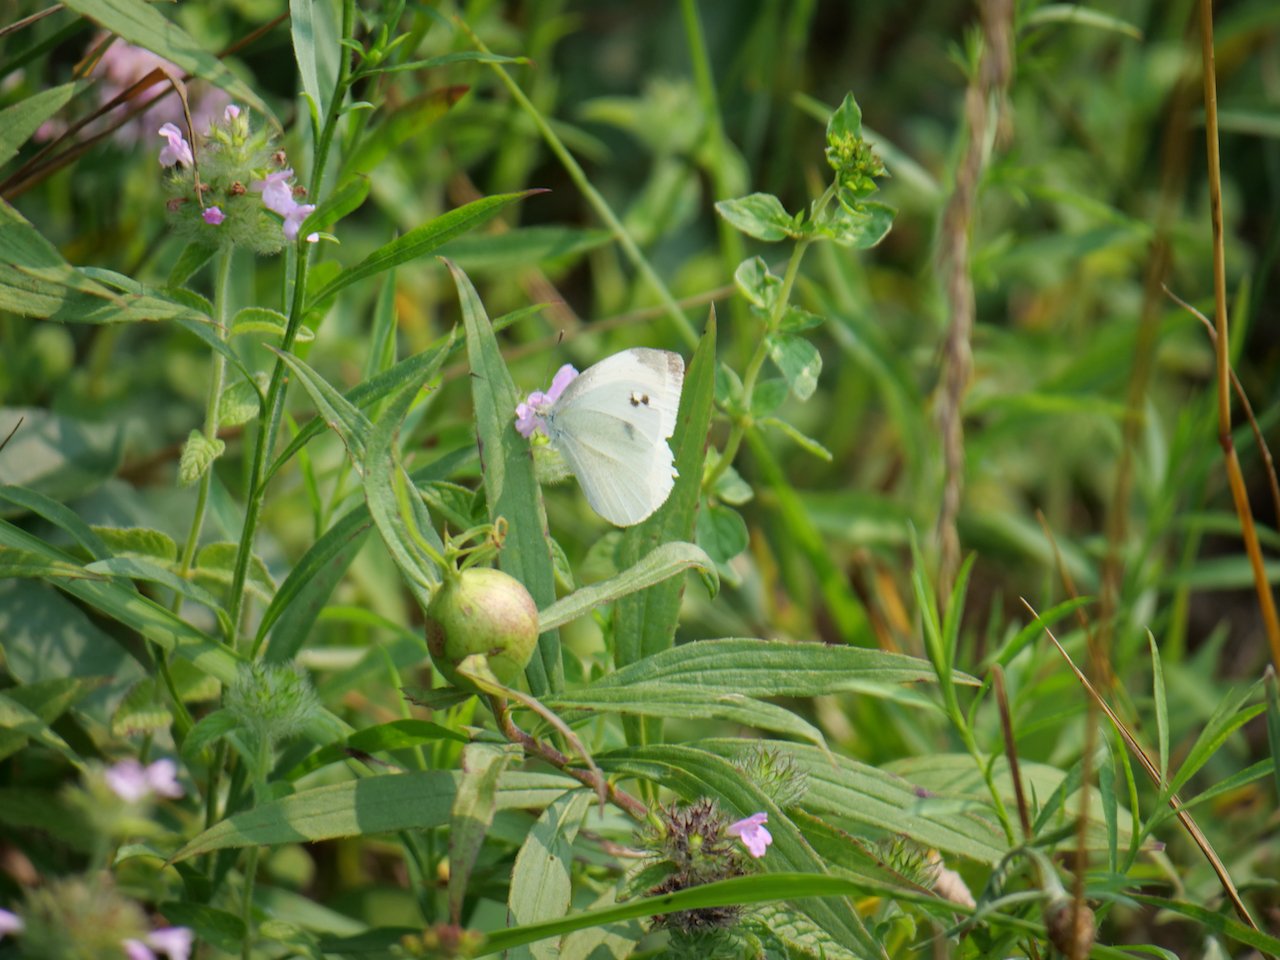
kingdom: Animalia
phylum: Arthropoda
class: Insecta
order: Lepidoptera
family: Pieridae
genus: Pieris
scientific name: Pieris rapae
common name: Cabbage White
